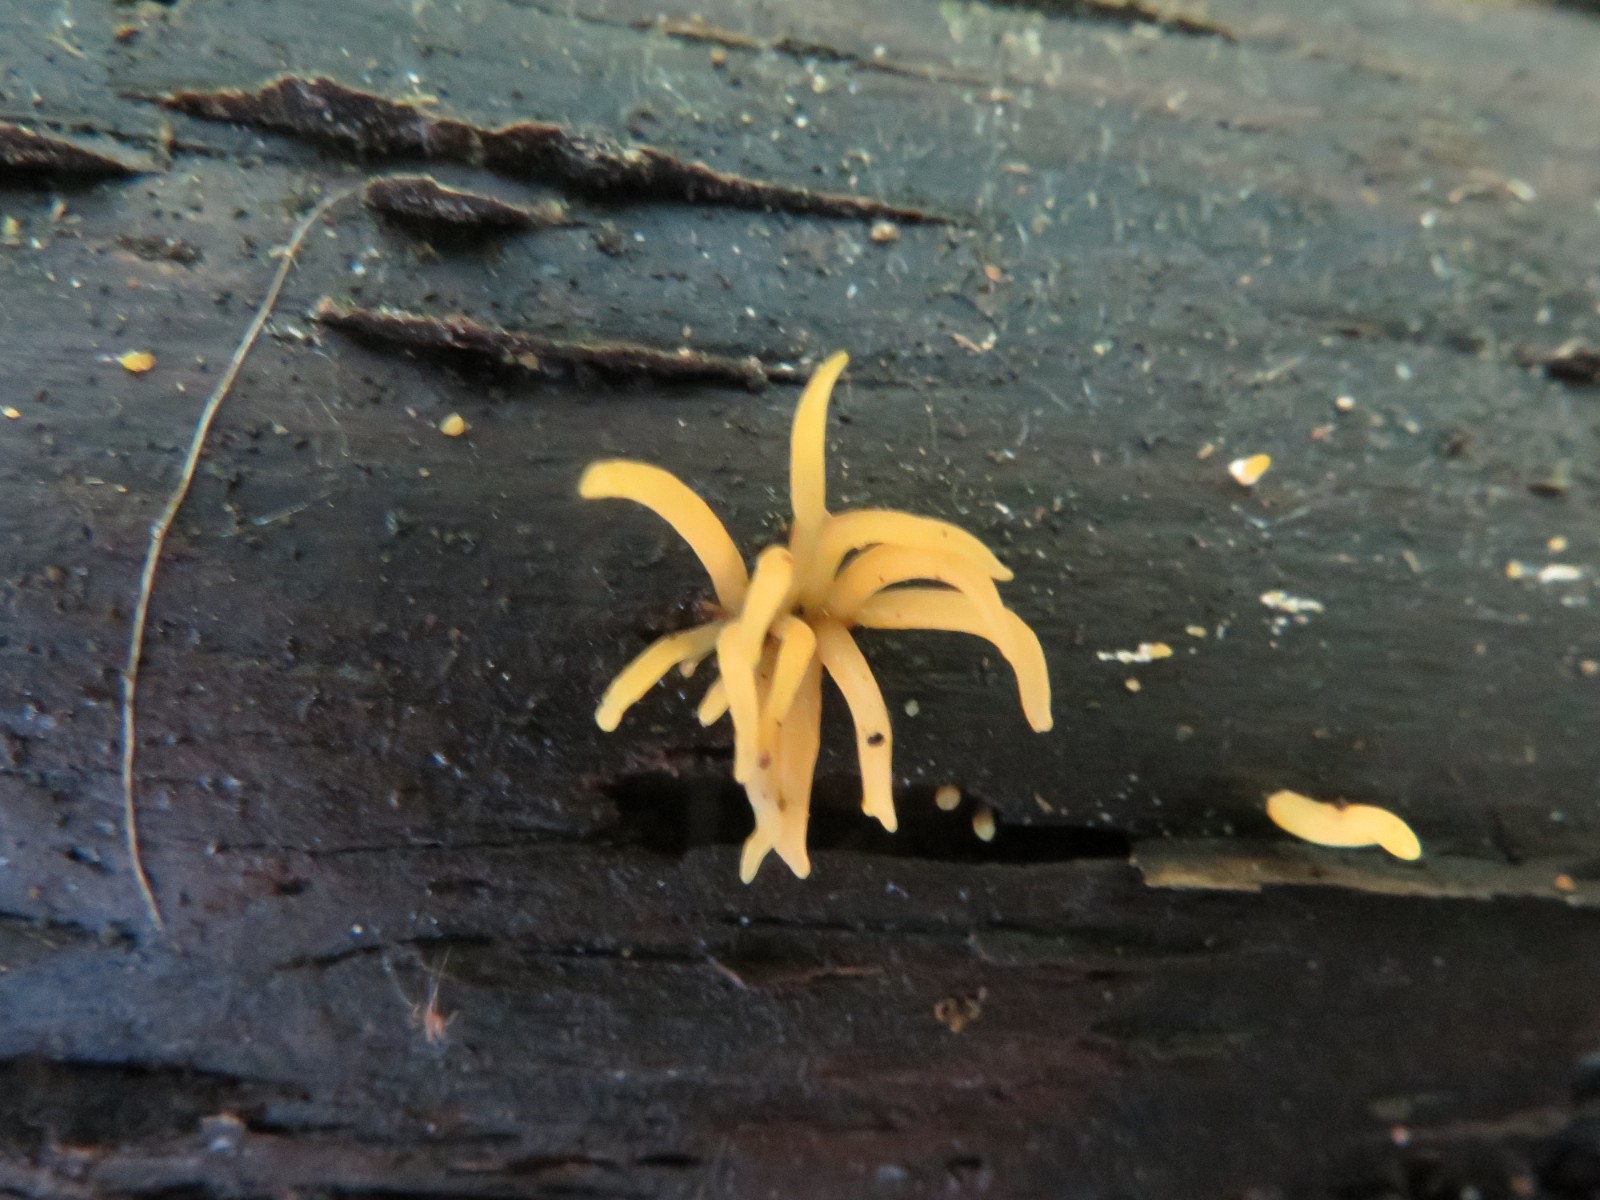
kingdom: Fungi
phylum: Basidiomycota
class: Dacrymycetes
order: Dacrymycetales
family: Dacrymycetaceae
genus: Calocera
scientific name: Calocera cornea
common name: liden guldgaffel
